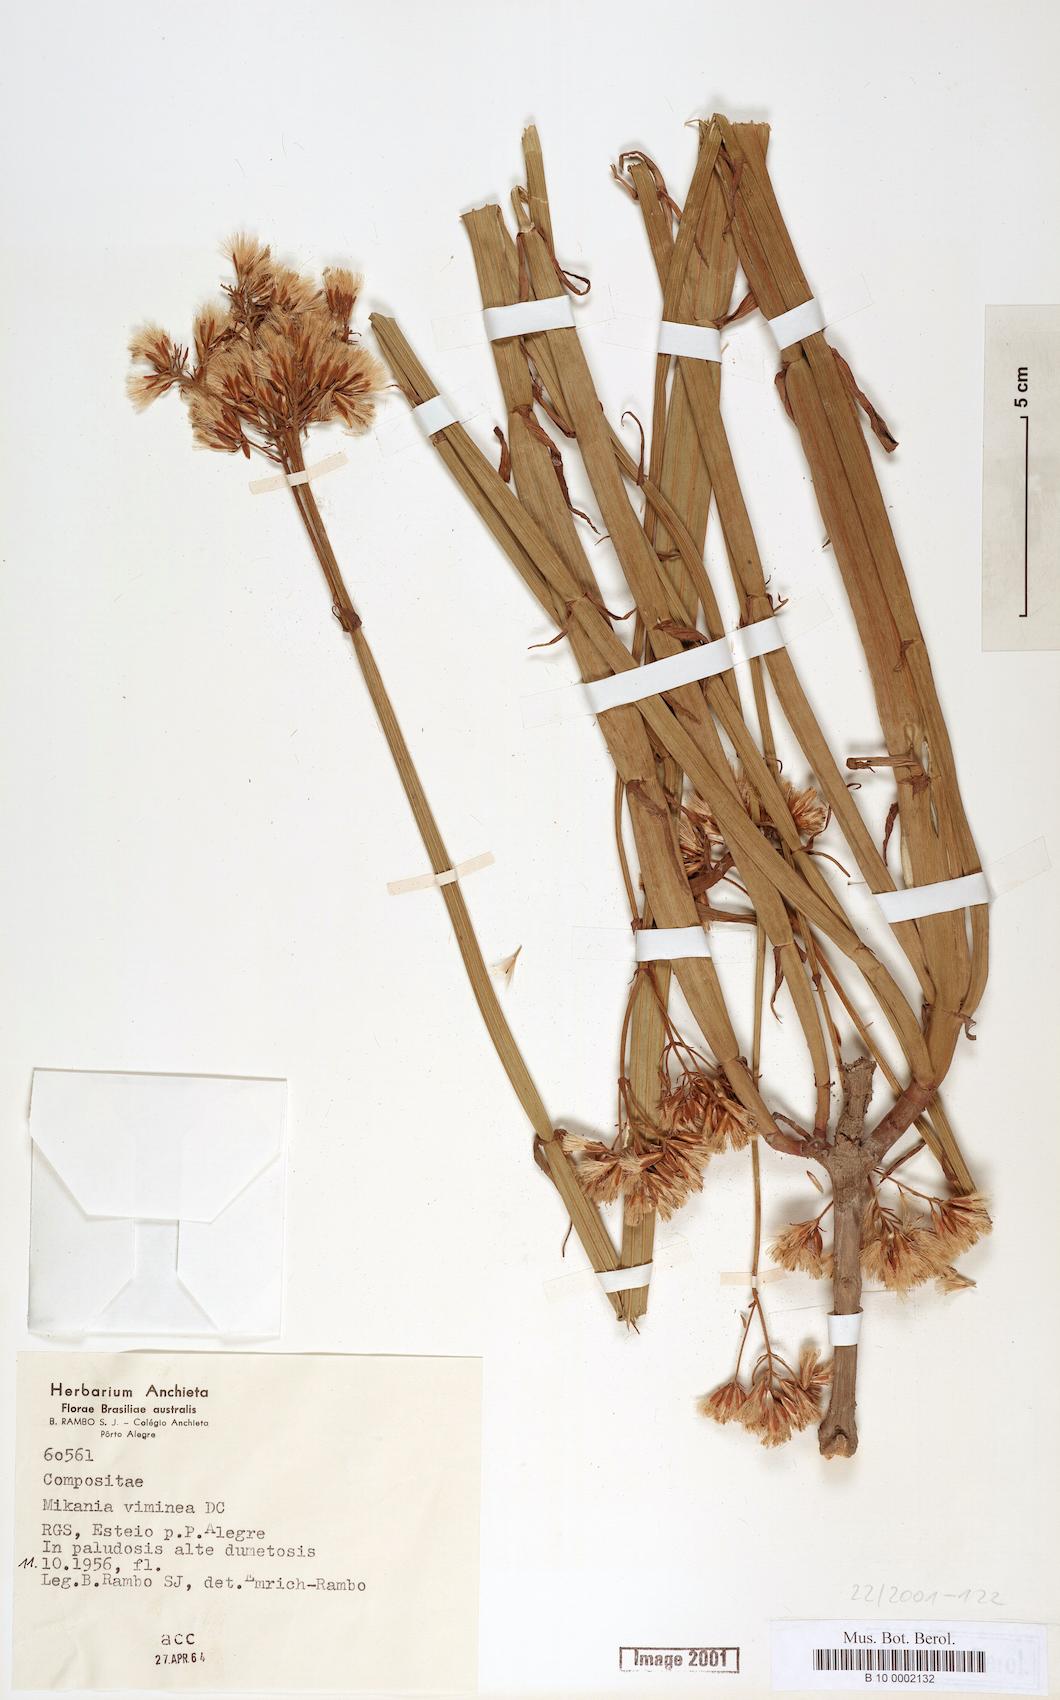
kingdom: Plantae
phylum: Tracheophyta
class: Magnoliopsida
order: Asterales
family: Asteraceae
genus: Mikania
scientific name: Mikania viminea
